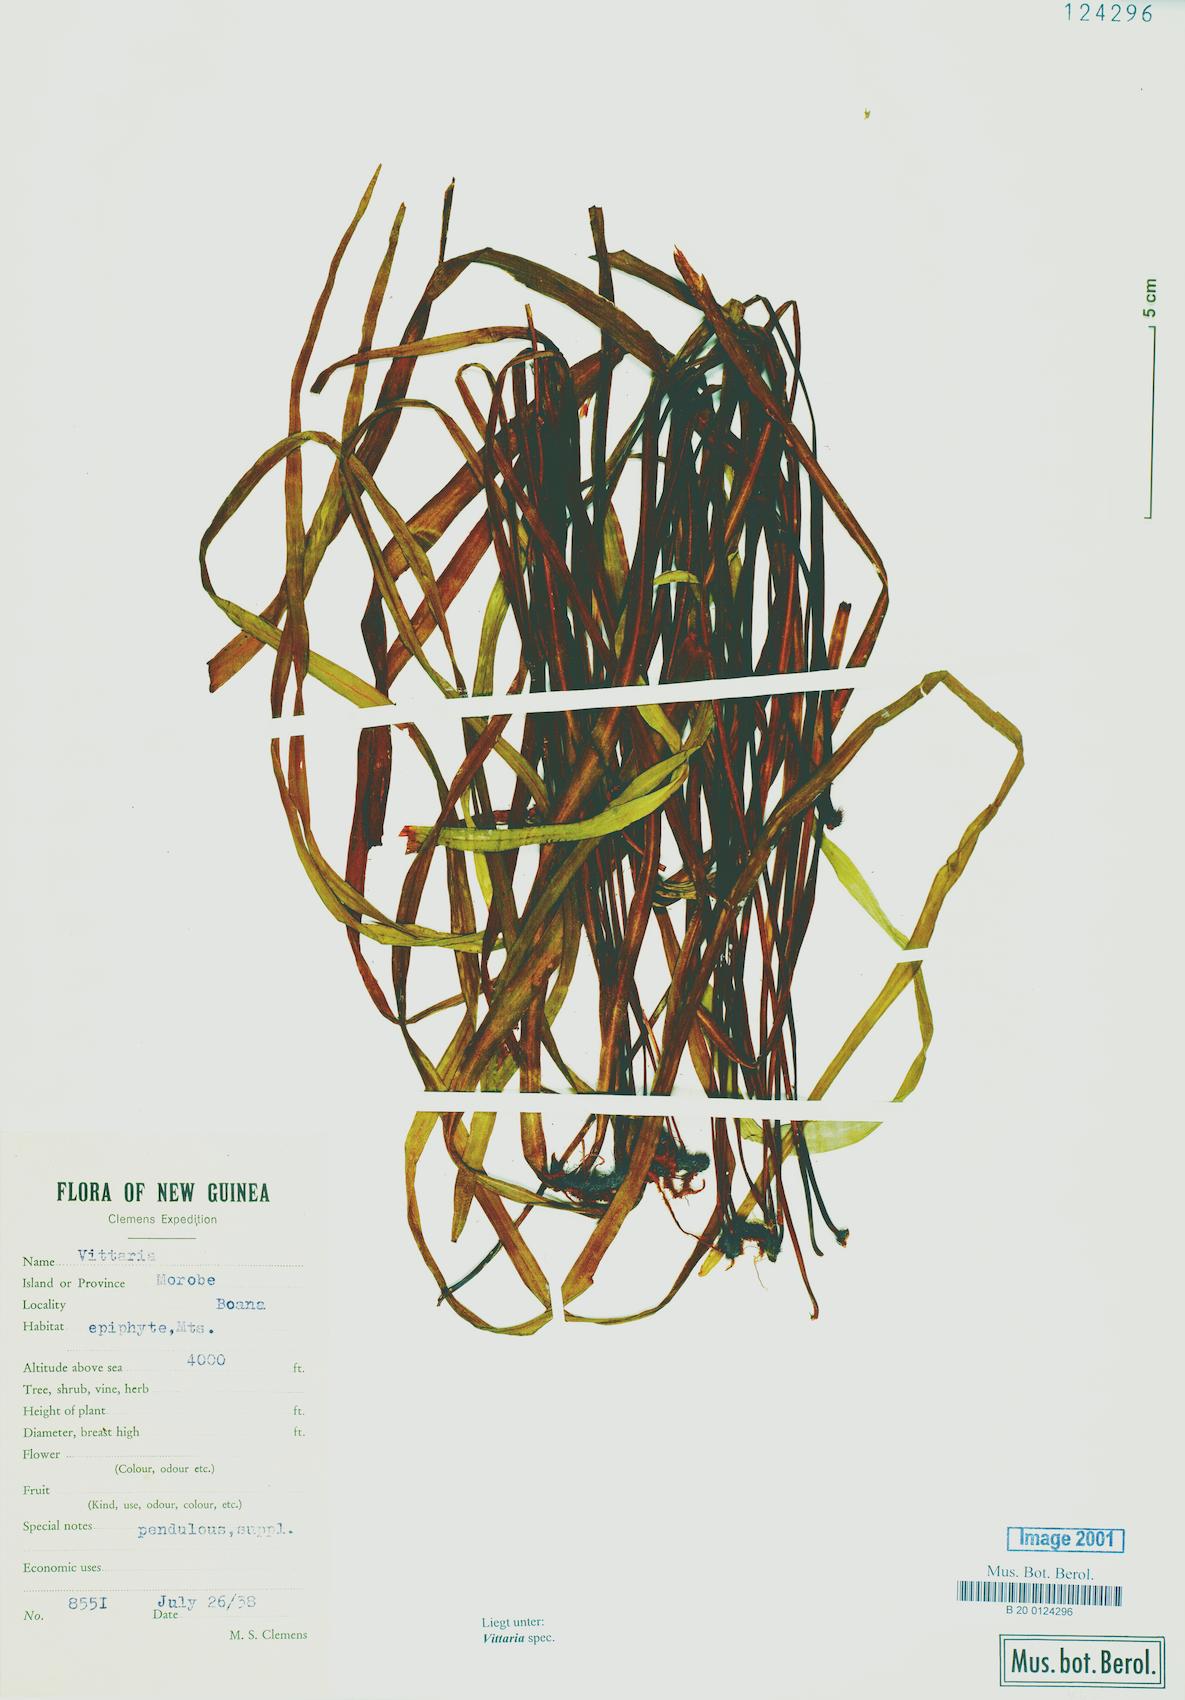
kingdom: Plantae
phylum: Tracheophyta
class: Polypodiopsida
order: Polypodiales
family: Pteridaceae
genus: Vittaria
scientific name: Vittaria
